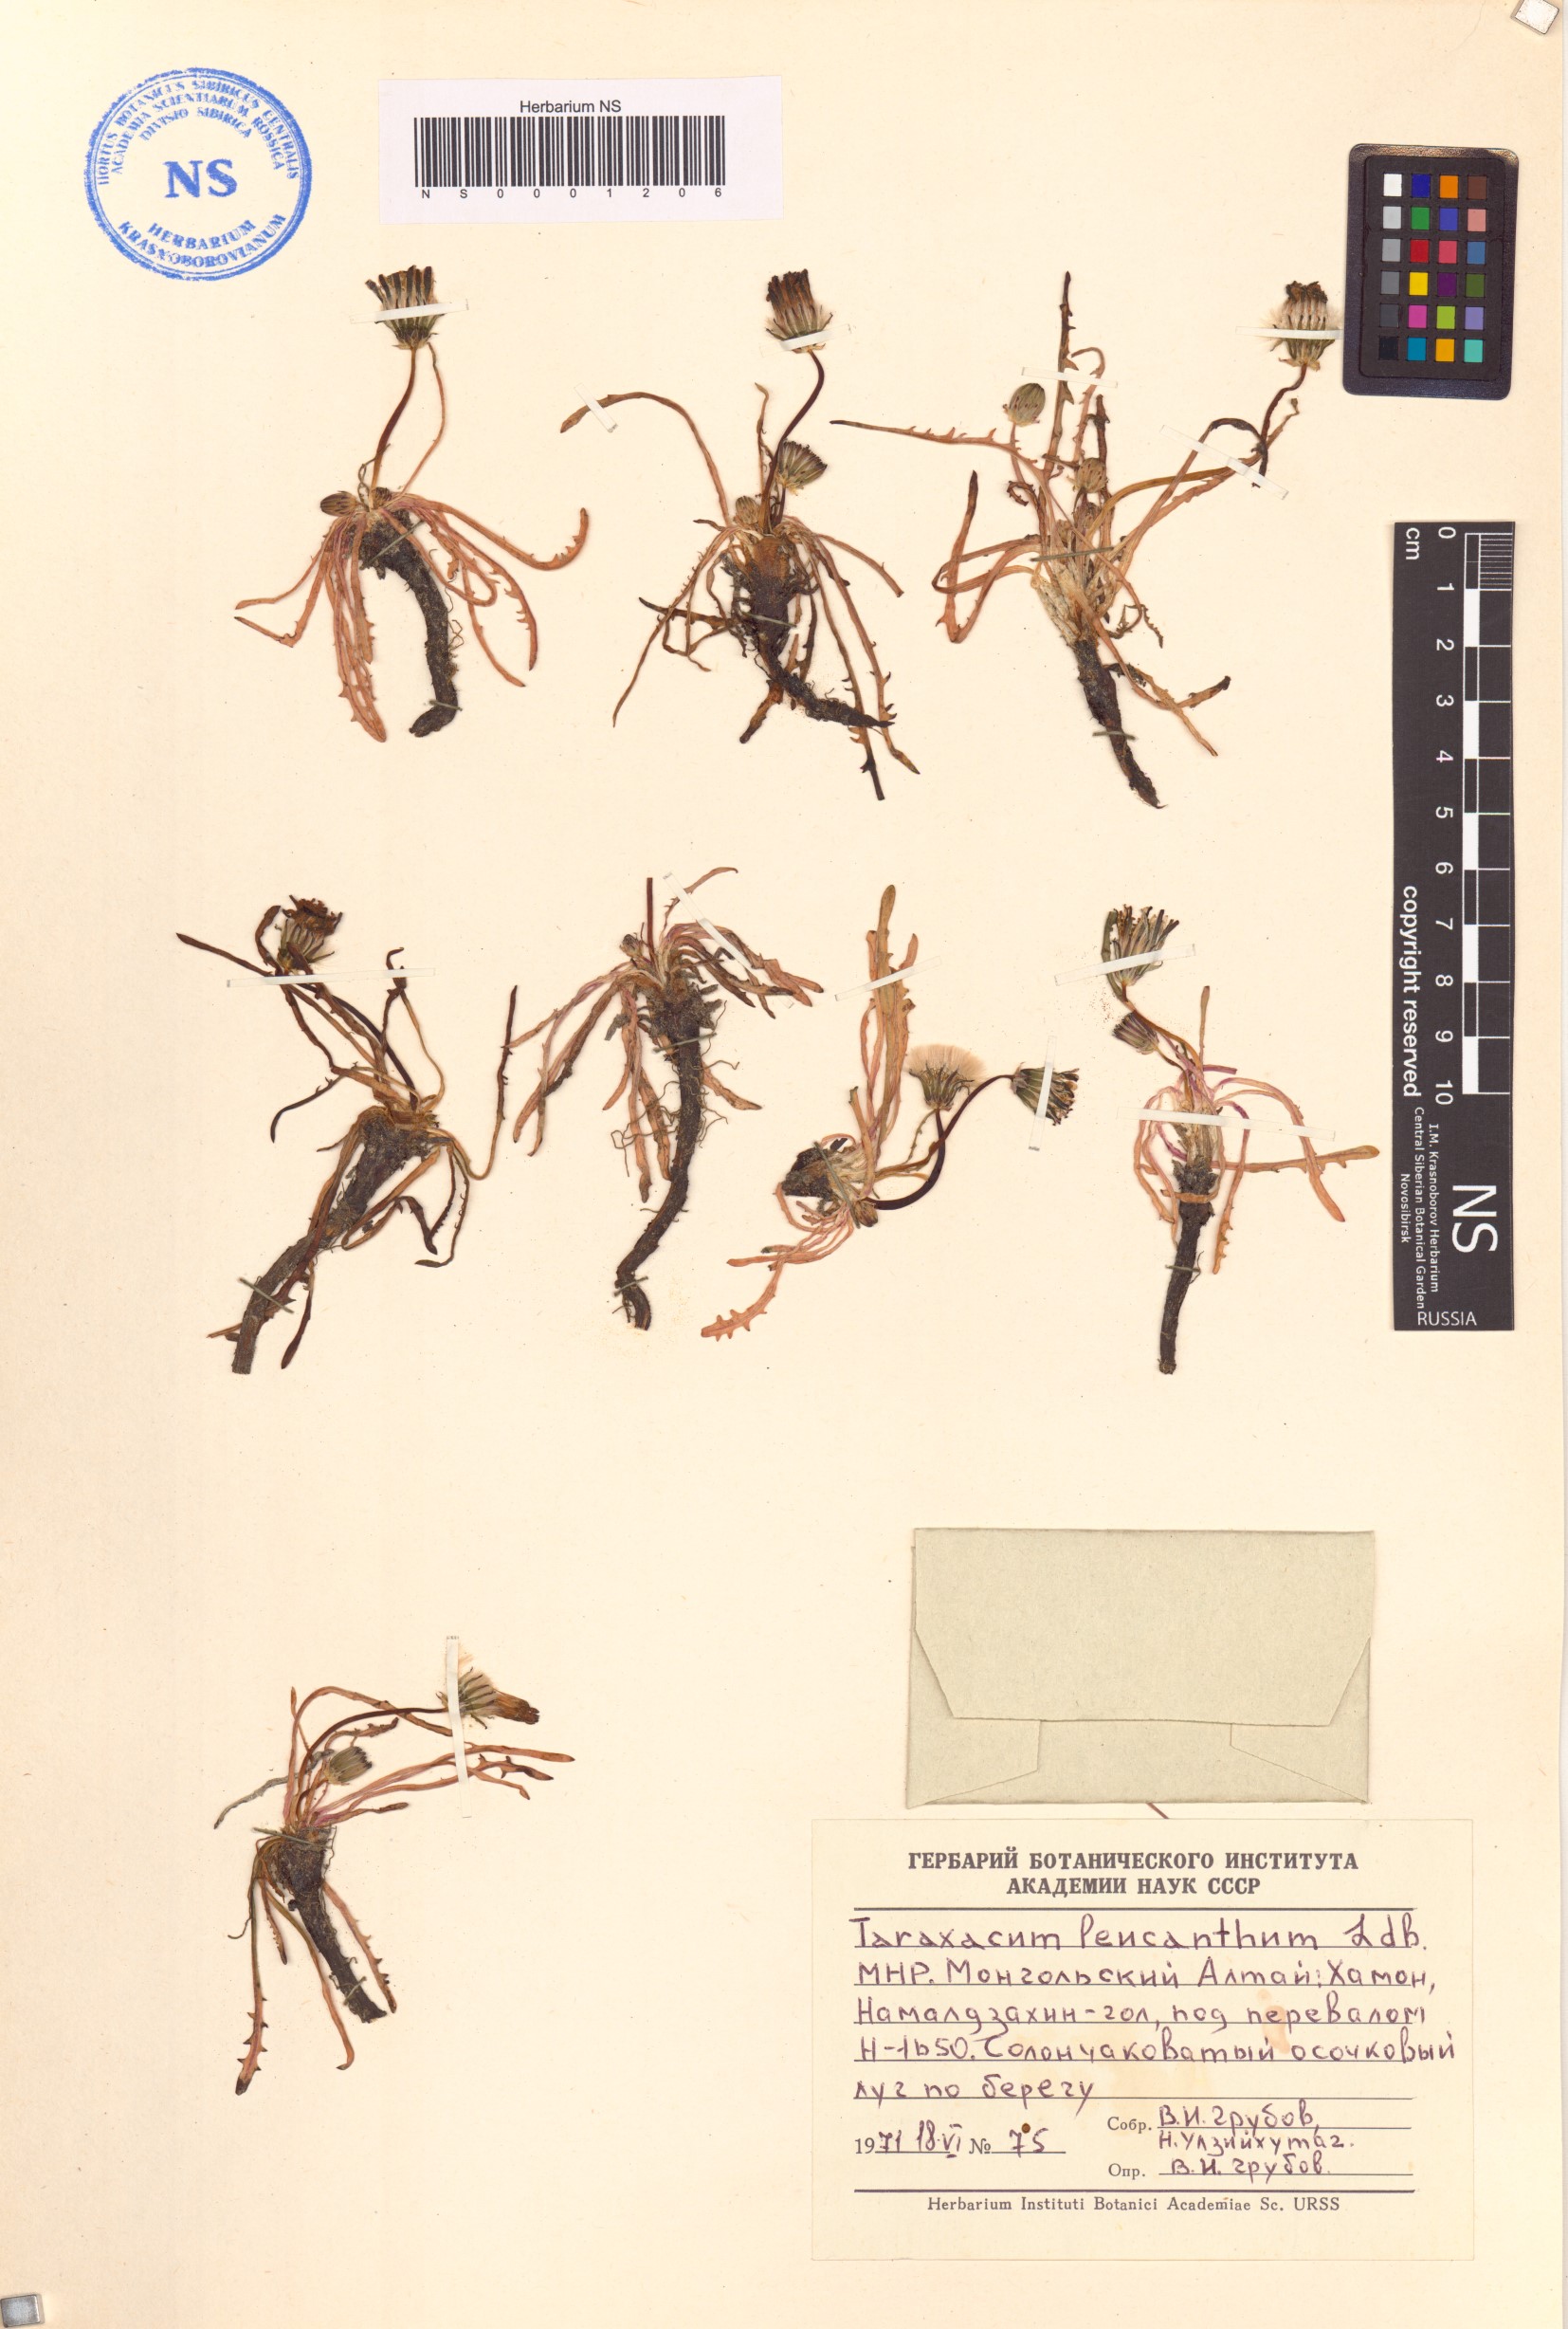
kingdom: Plantae
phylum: Tracheophyta
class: Magnoliopsida
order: Asterales
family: Asteraceae
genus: Taraxacum
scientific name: Taraxacum leucanthum
